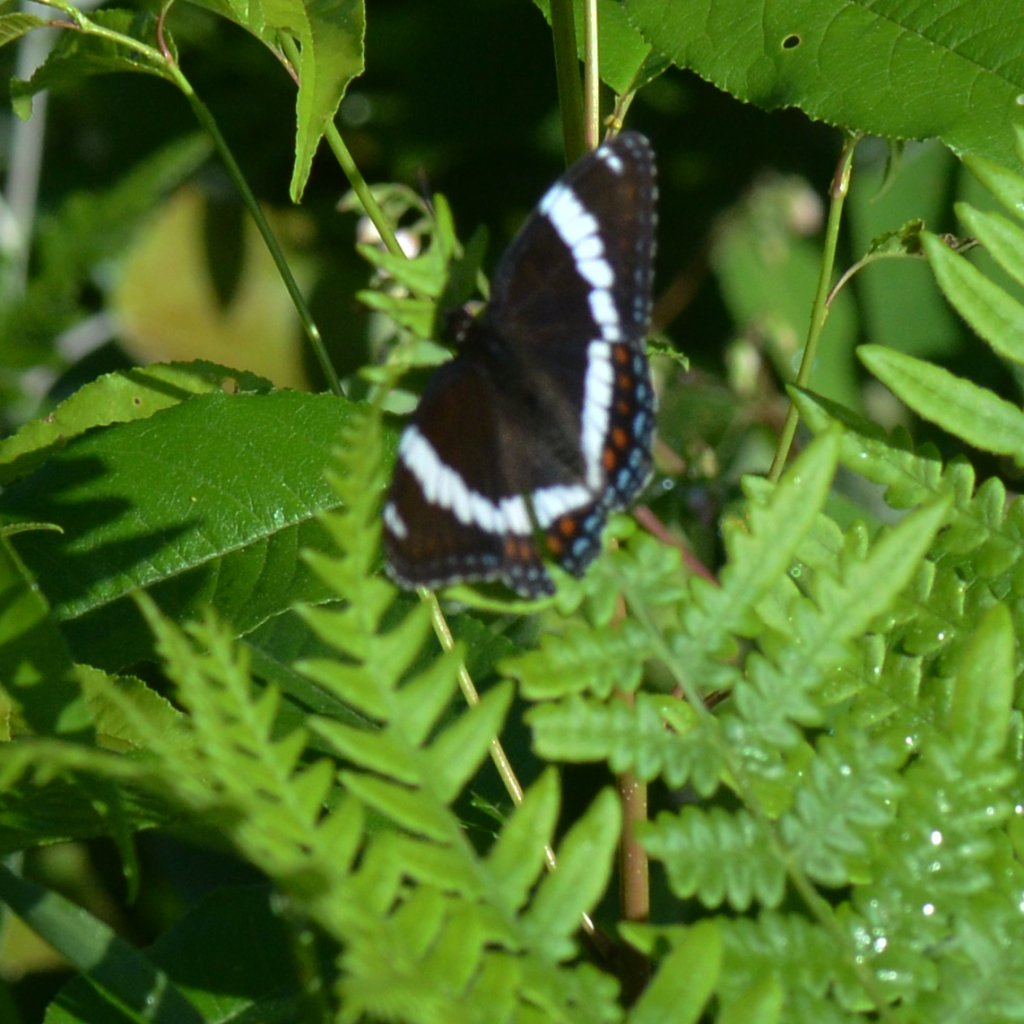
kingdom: Animalia
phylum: Arthropoda
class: Insecta
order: Lepidoptera
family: Nymphalidae
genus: Limenitis
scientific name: Limenitis arthemis
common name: Red-spotted Admiral
